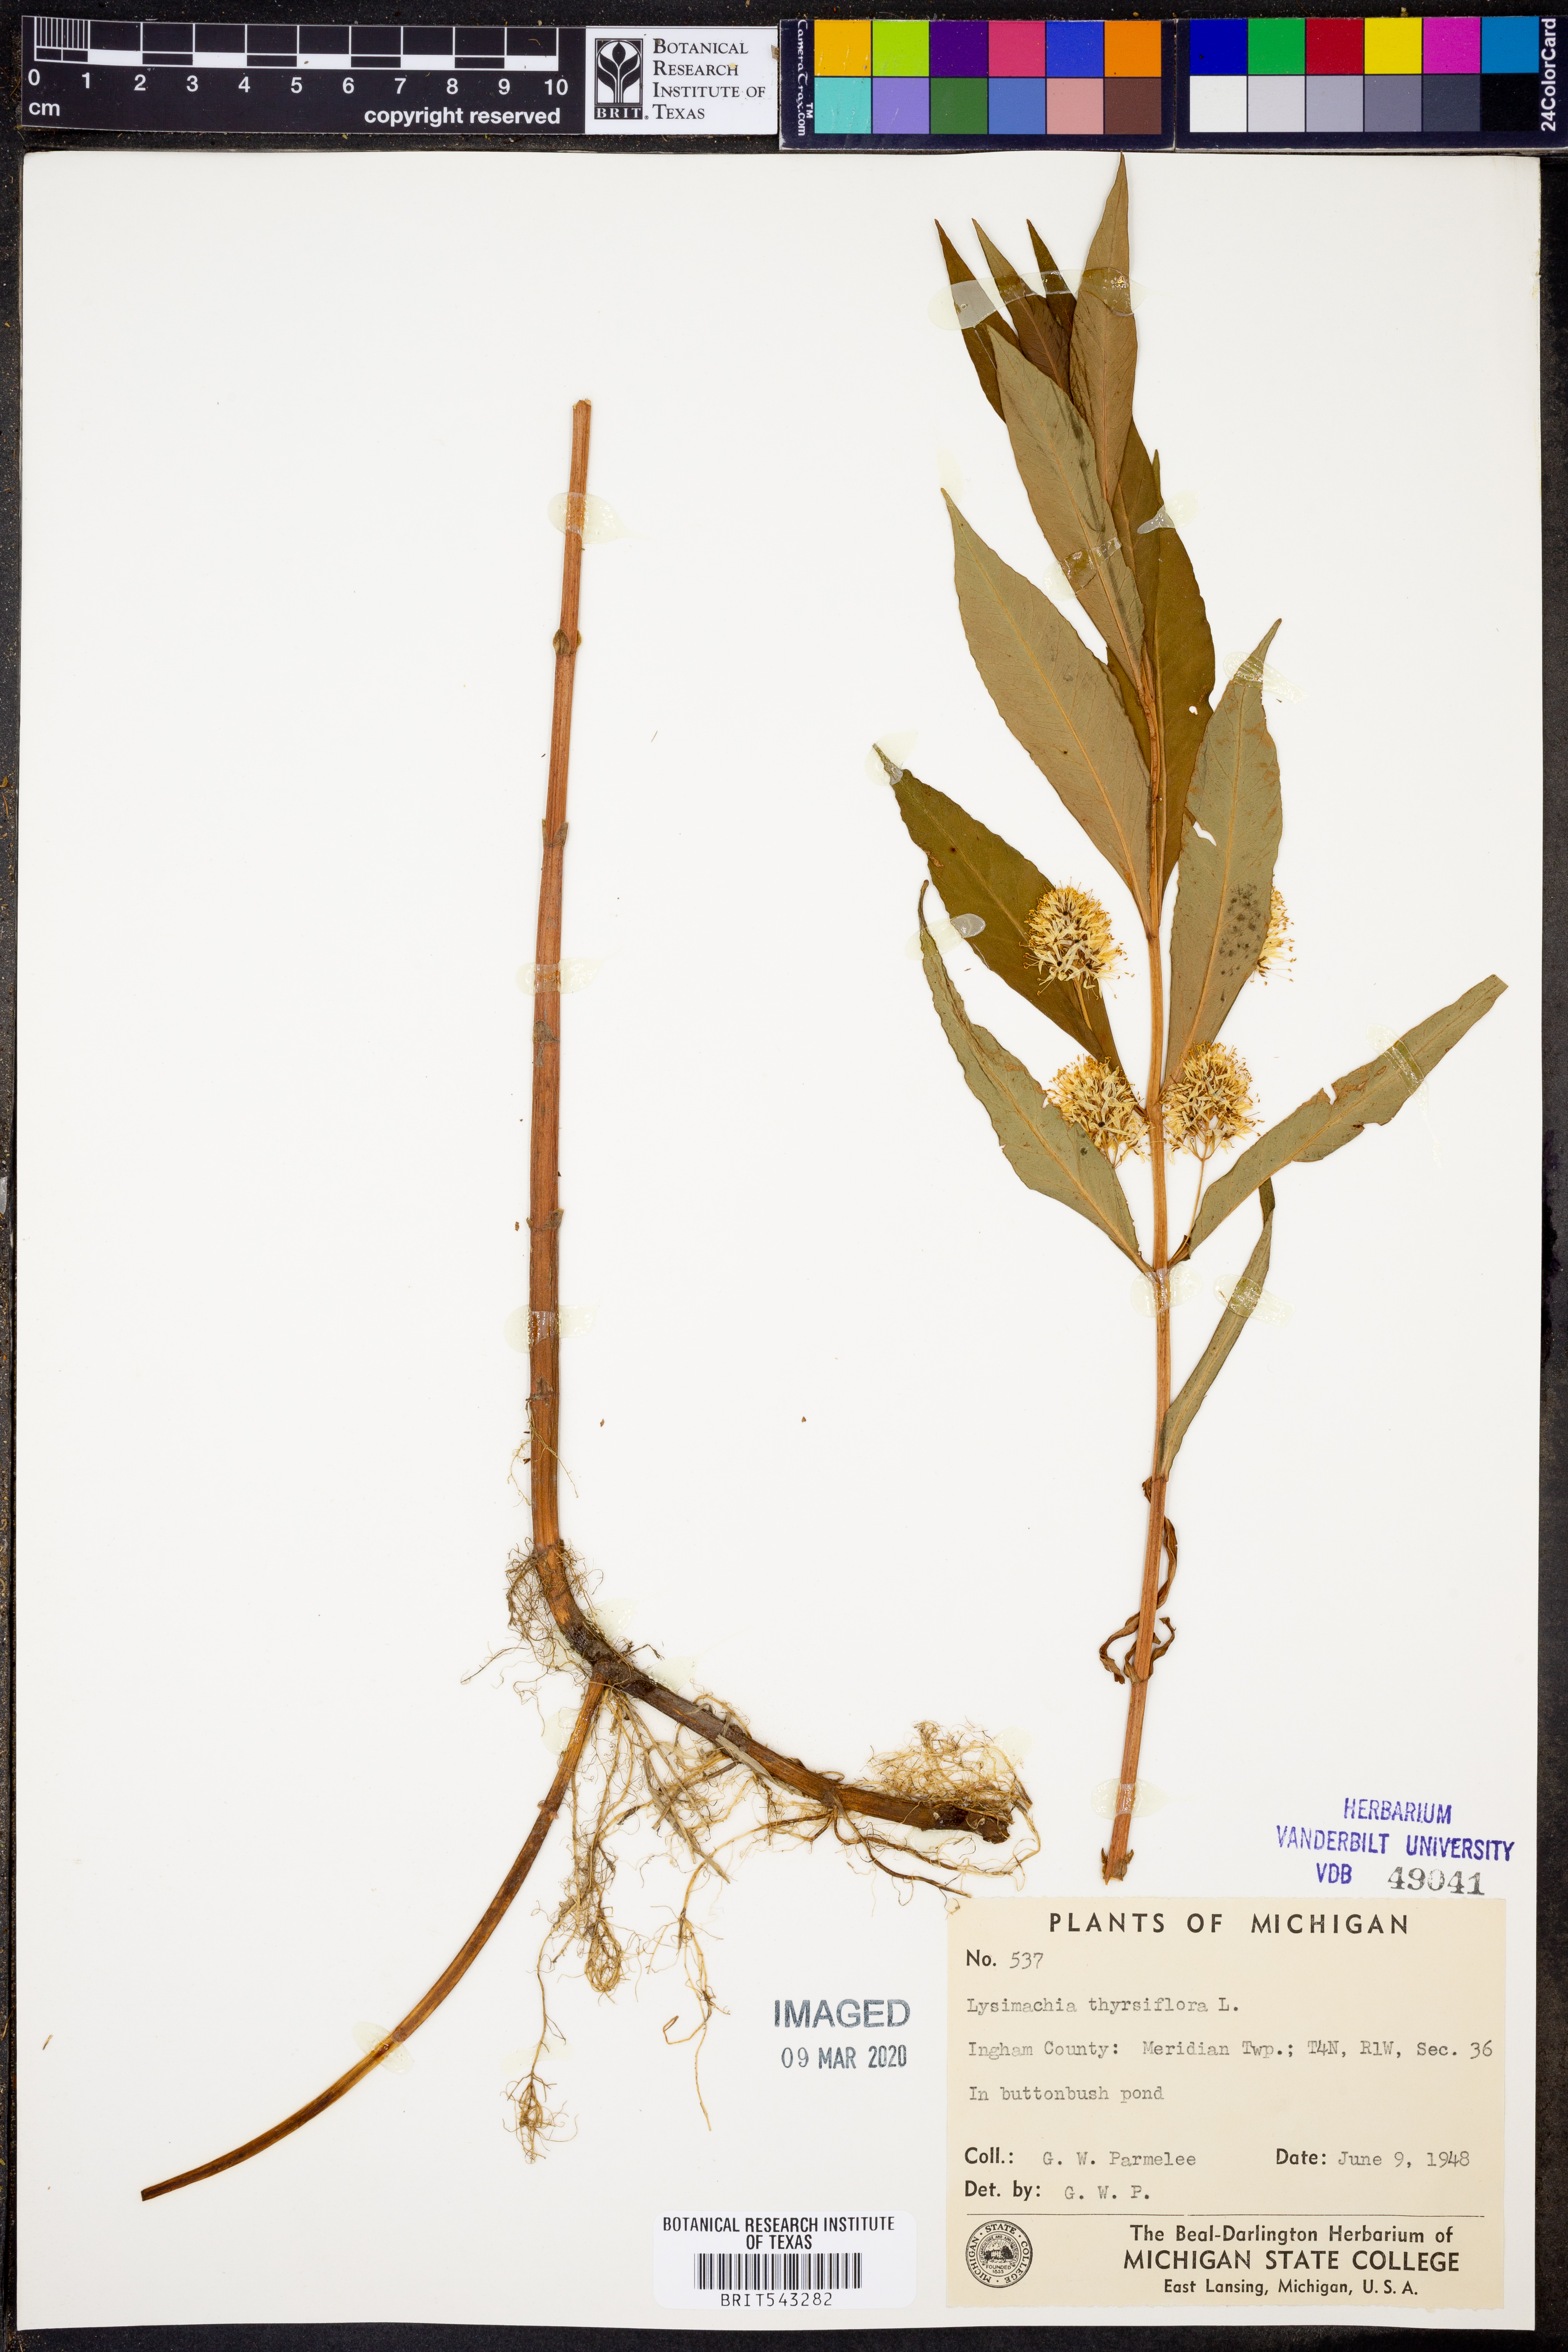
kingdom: Plantae
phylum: Tracheophyta
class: Magnoliopsida
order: Ericales
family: Primulaceae
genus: Lysimachia
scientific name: Lysimachia thyrsiflora
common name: Tufted loosestrife
